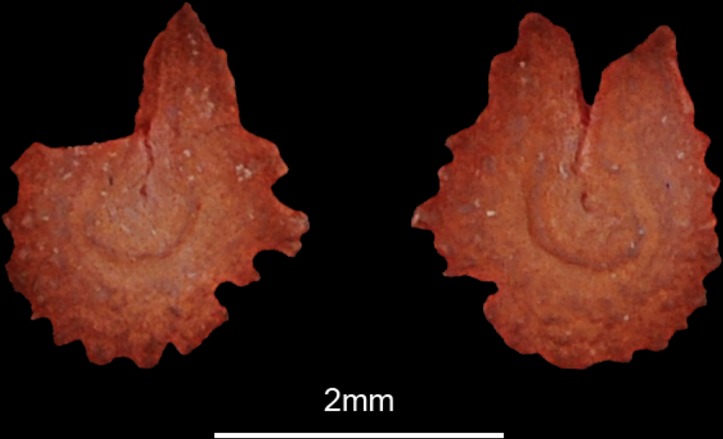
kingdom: Animalia
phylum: Chordata
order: Characiformes
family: Distichodontidae
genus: Ichthyborus
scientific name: Ichthyborus besse
